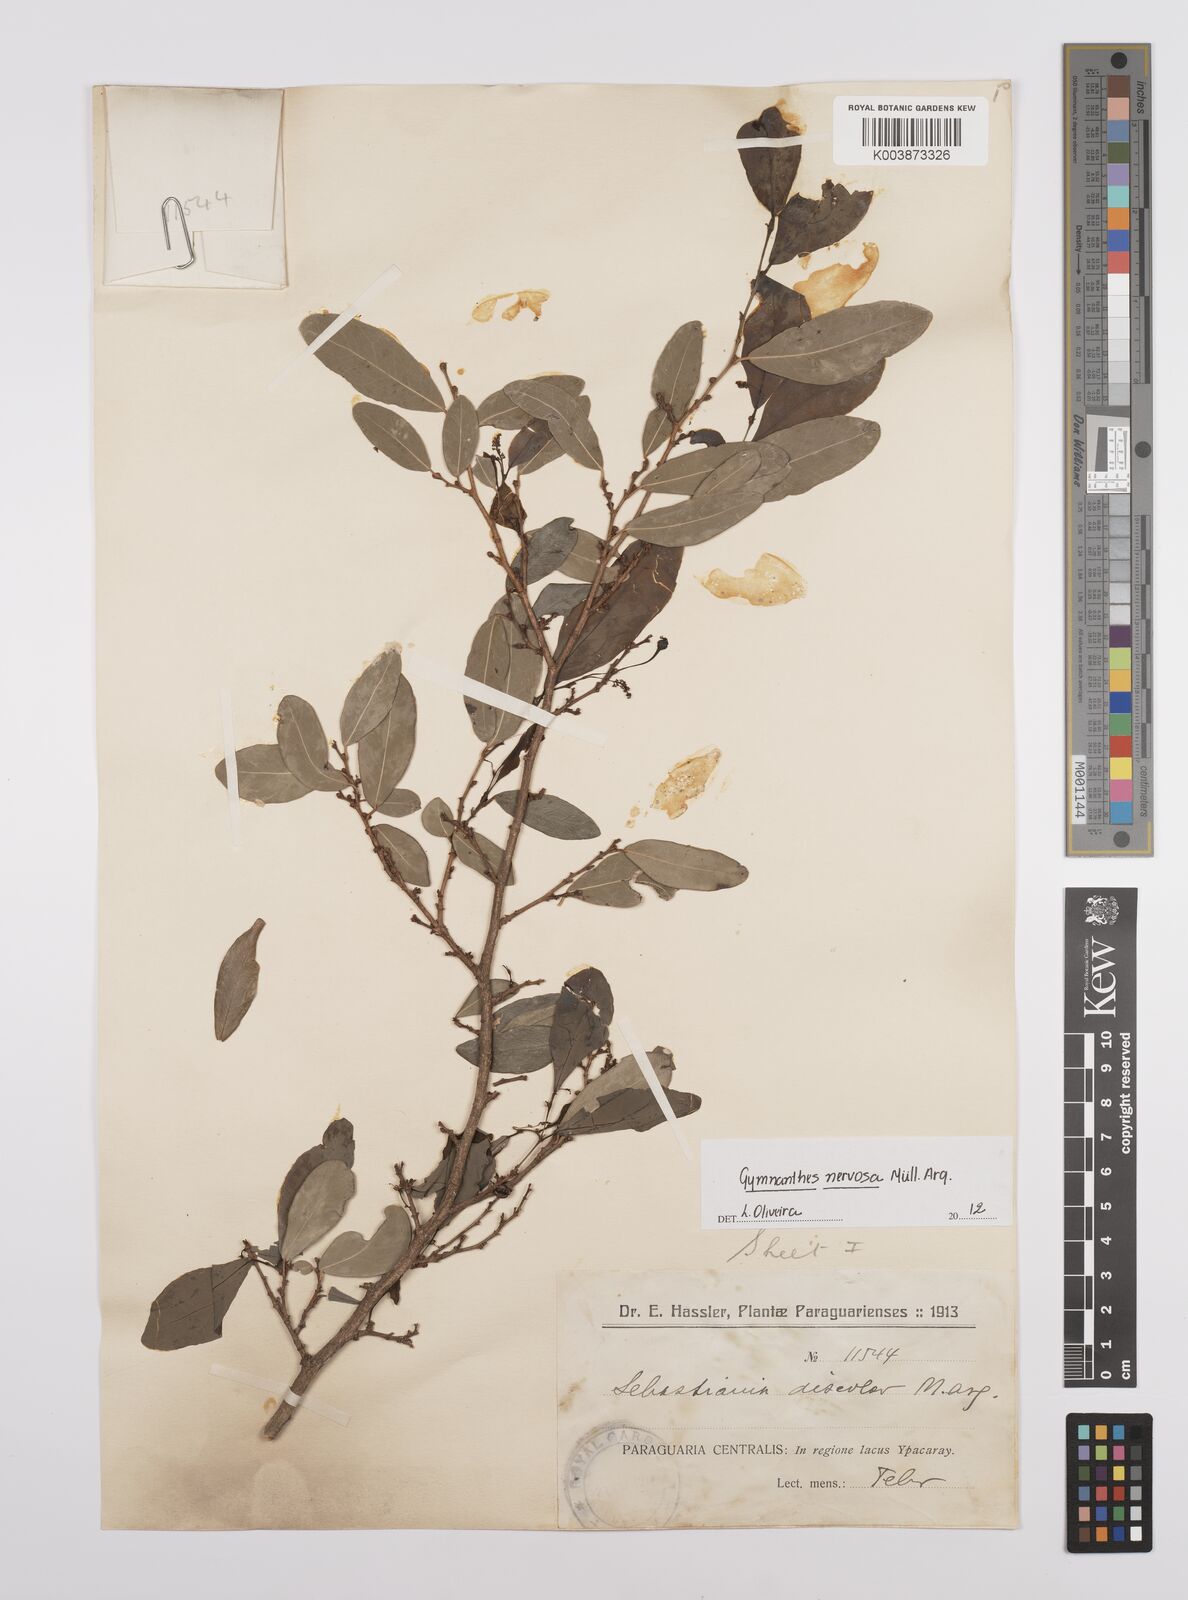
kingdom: Plantae
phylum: Tracheophyta
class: Magnoliopsida
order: Malpighiales
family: Euphorbiaceae
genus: Gymnanthes
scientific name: Gymnanthes nervosa
